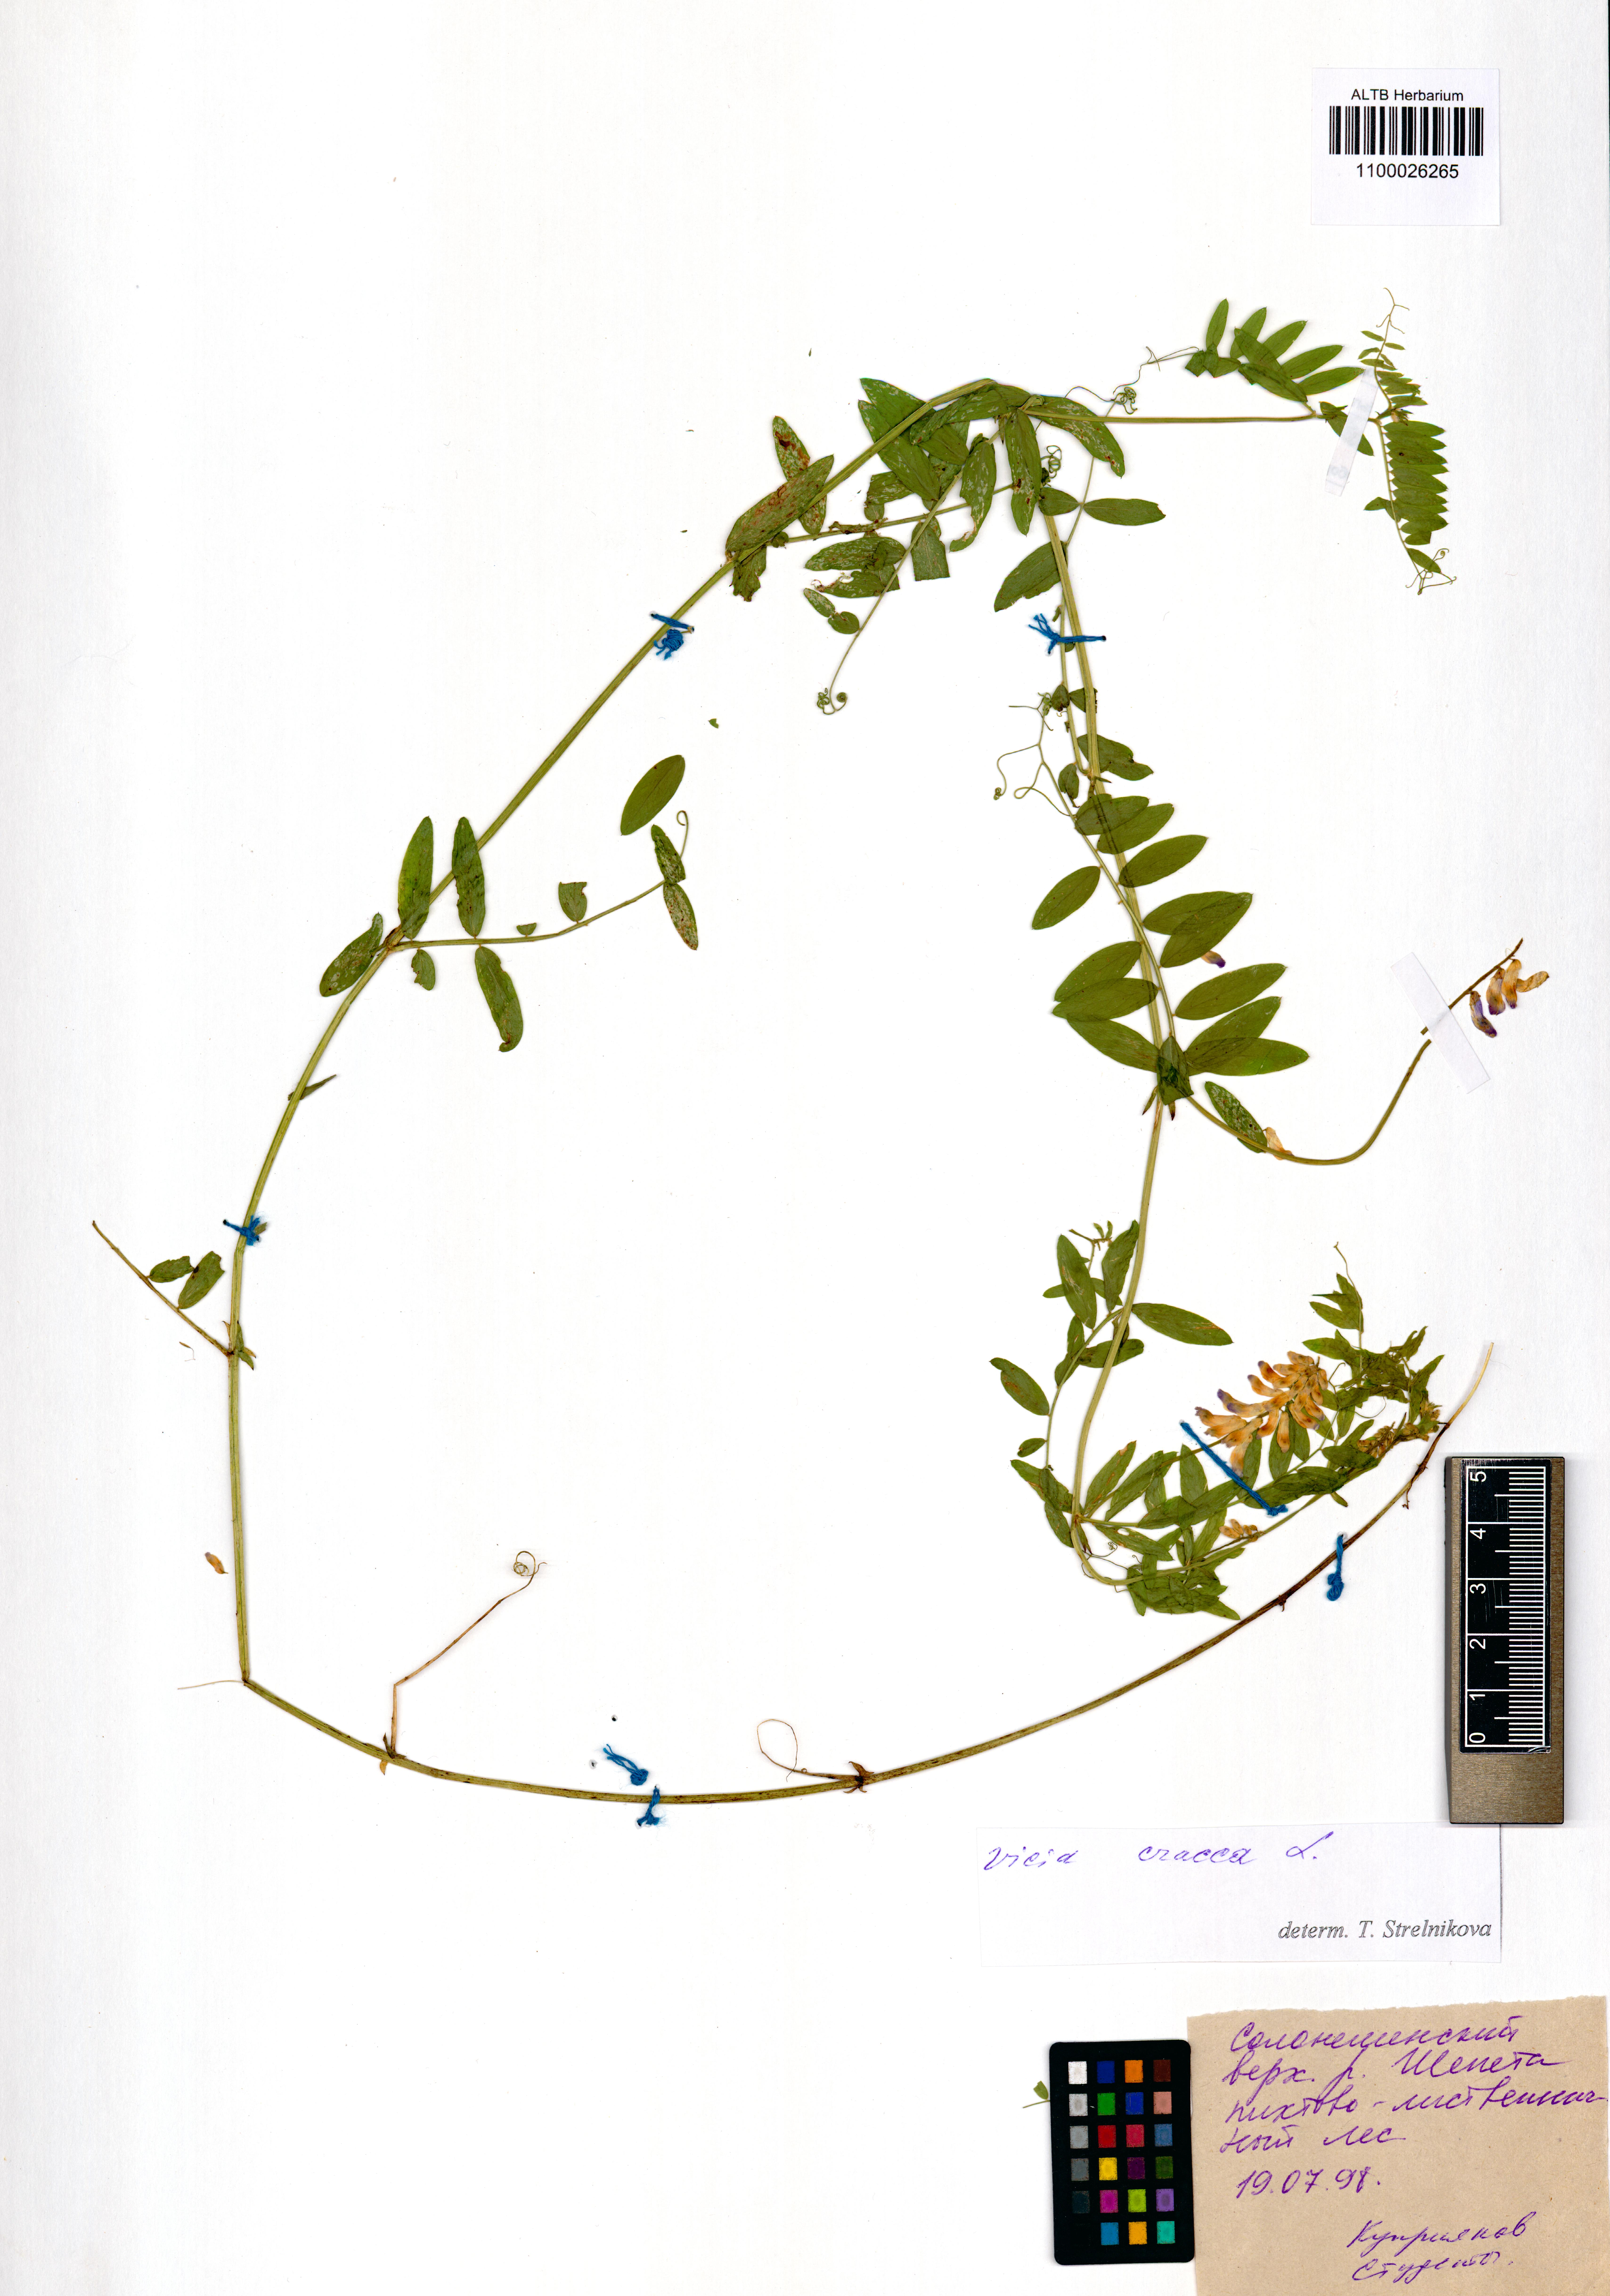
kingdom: Plantae
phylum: Tracheophyta
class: Magnoliopsida
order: Fabales
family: Fabaceae
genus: Vicia
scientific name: Vicia cracca
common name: Bird vetch
